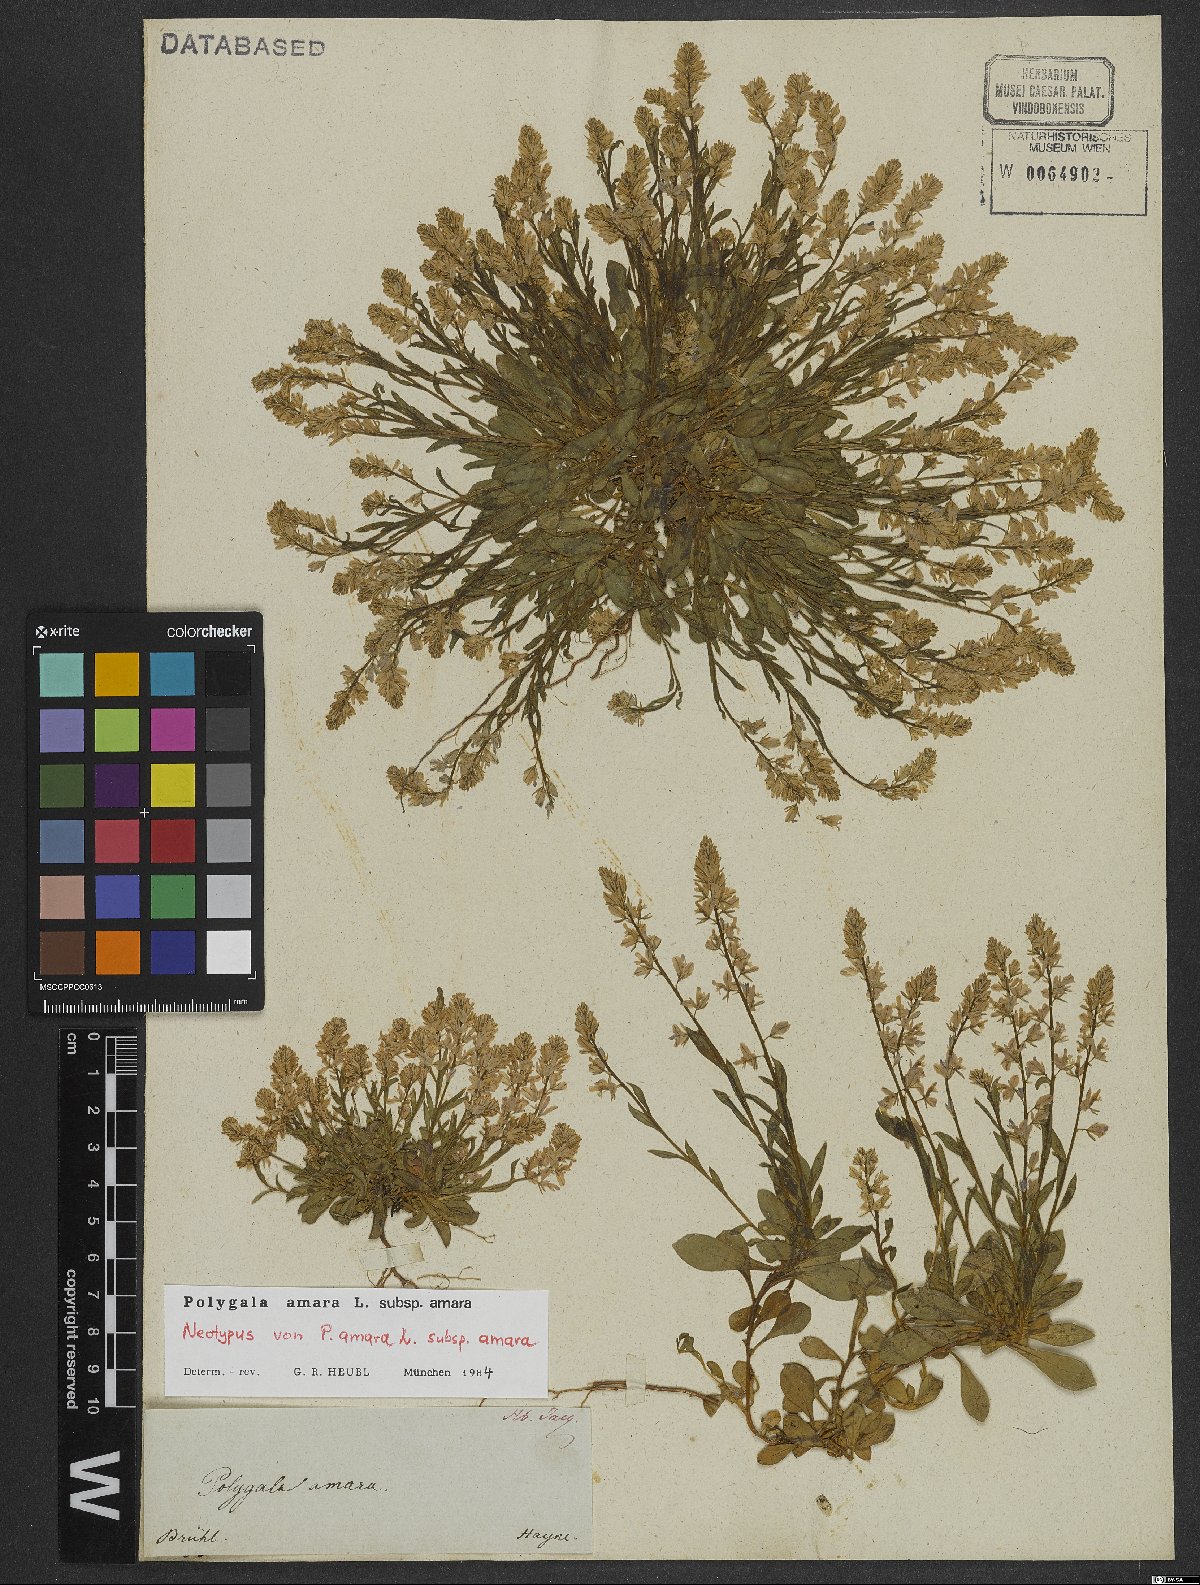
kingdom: Plantae
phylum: Tracheophyta
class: Magnoliopsida
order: Fabales
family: Polygalaceae
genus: Polygala
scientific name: Polygala amara
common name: Milkwort
